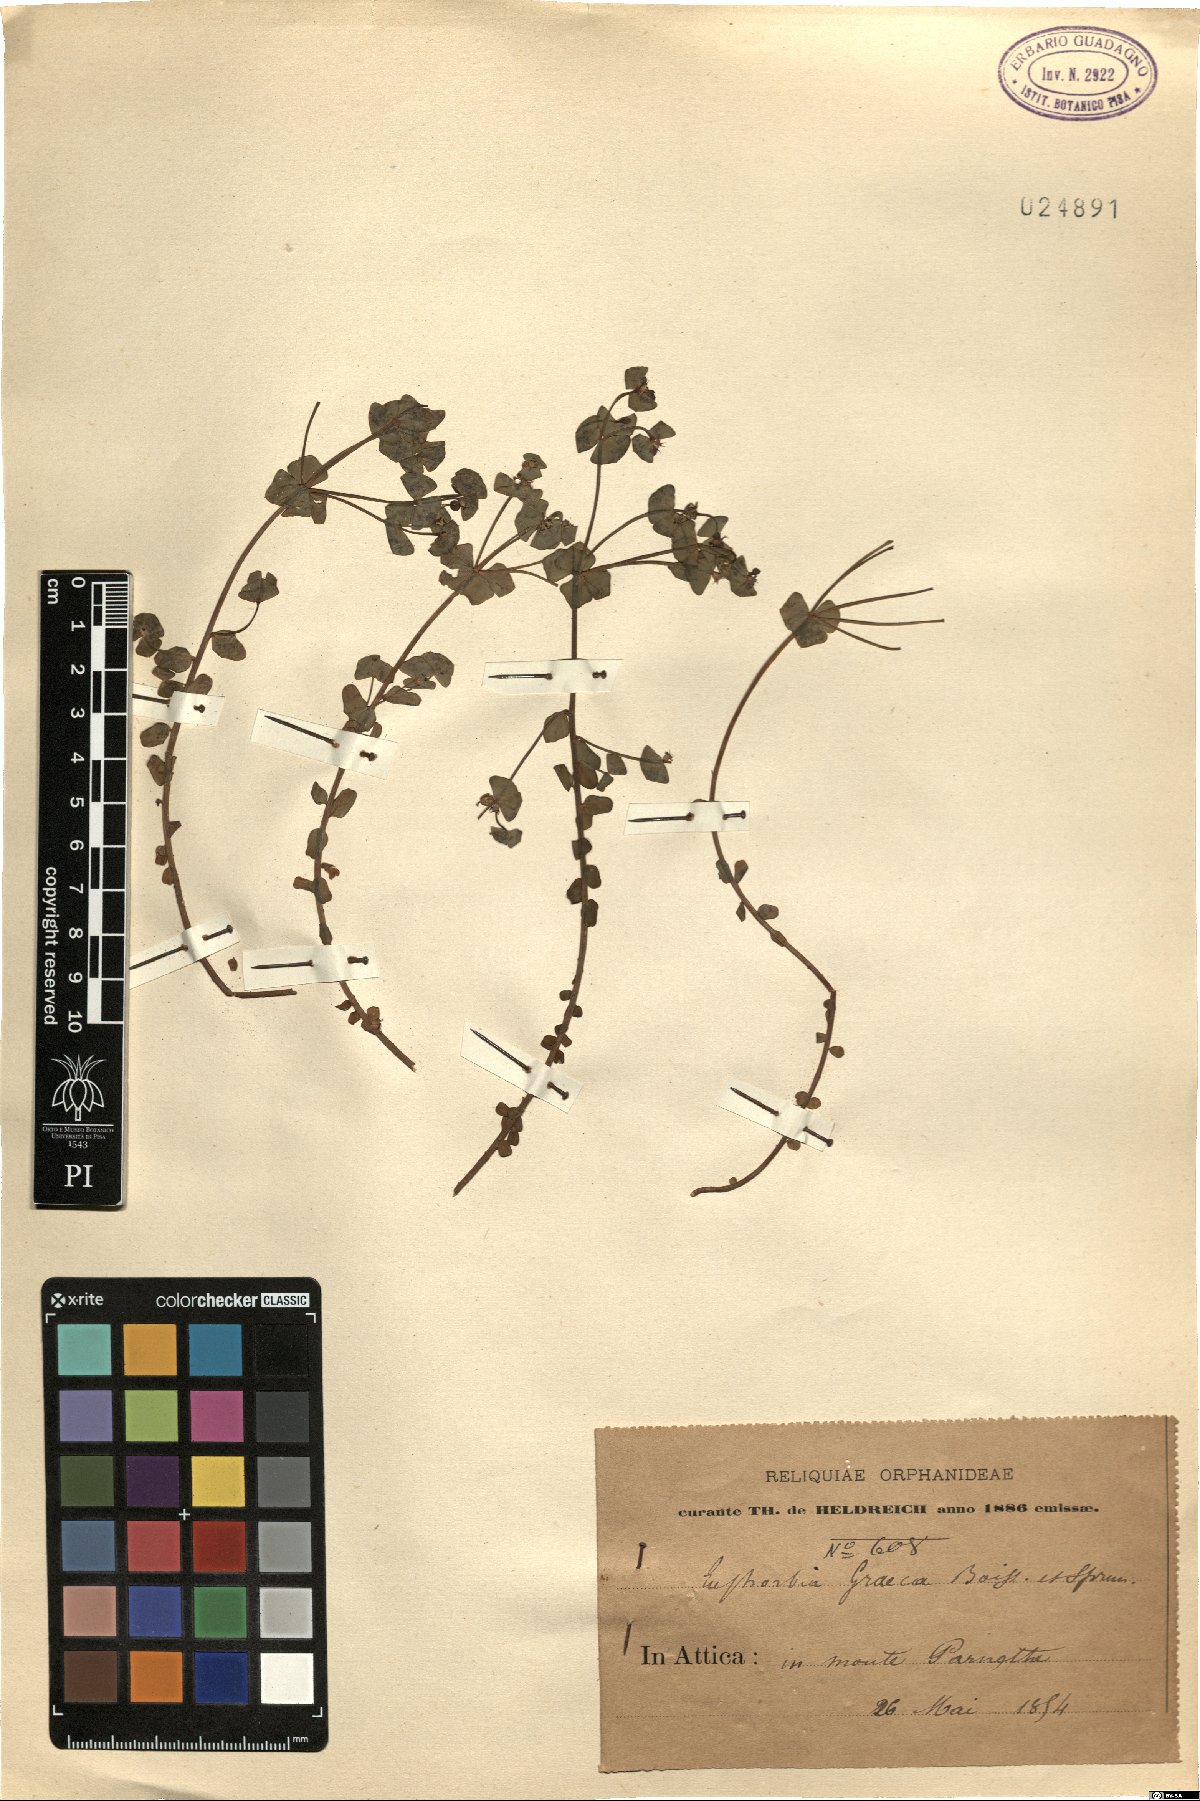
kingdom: Plantae
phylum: Tracheophyta
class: Magnoliopsida
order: Malpighiales
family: Euphorbiaceae
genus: Euphorbia
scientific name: Euphorbia taurinensis
